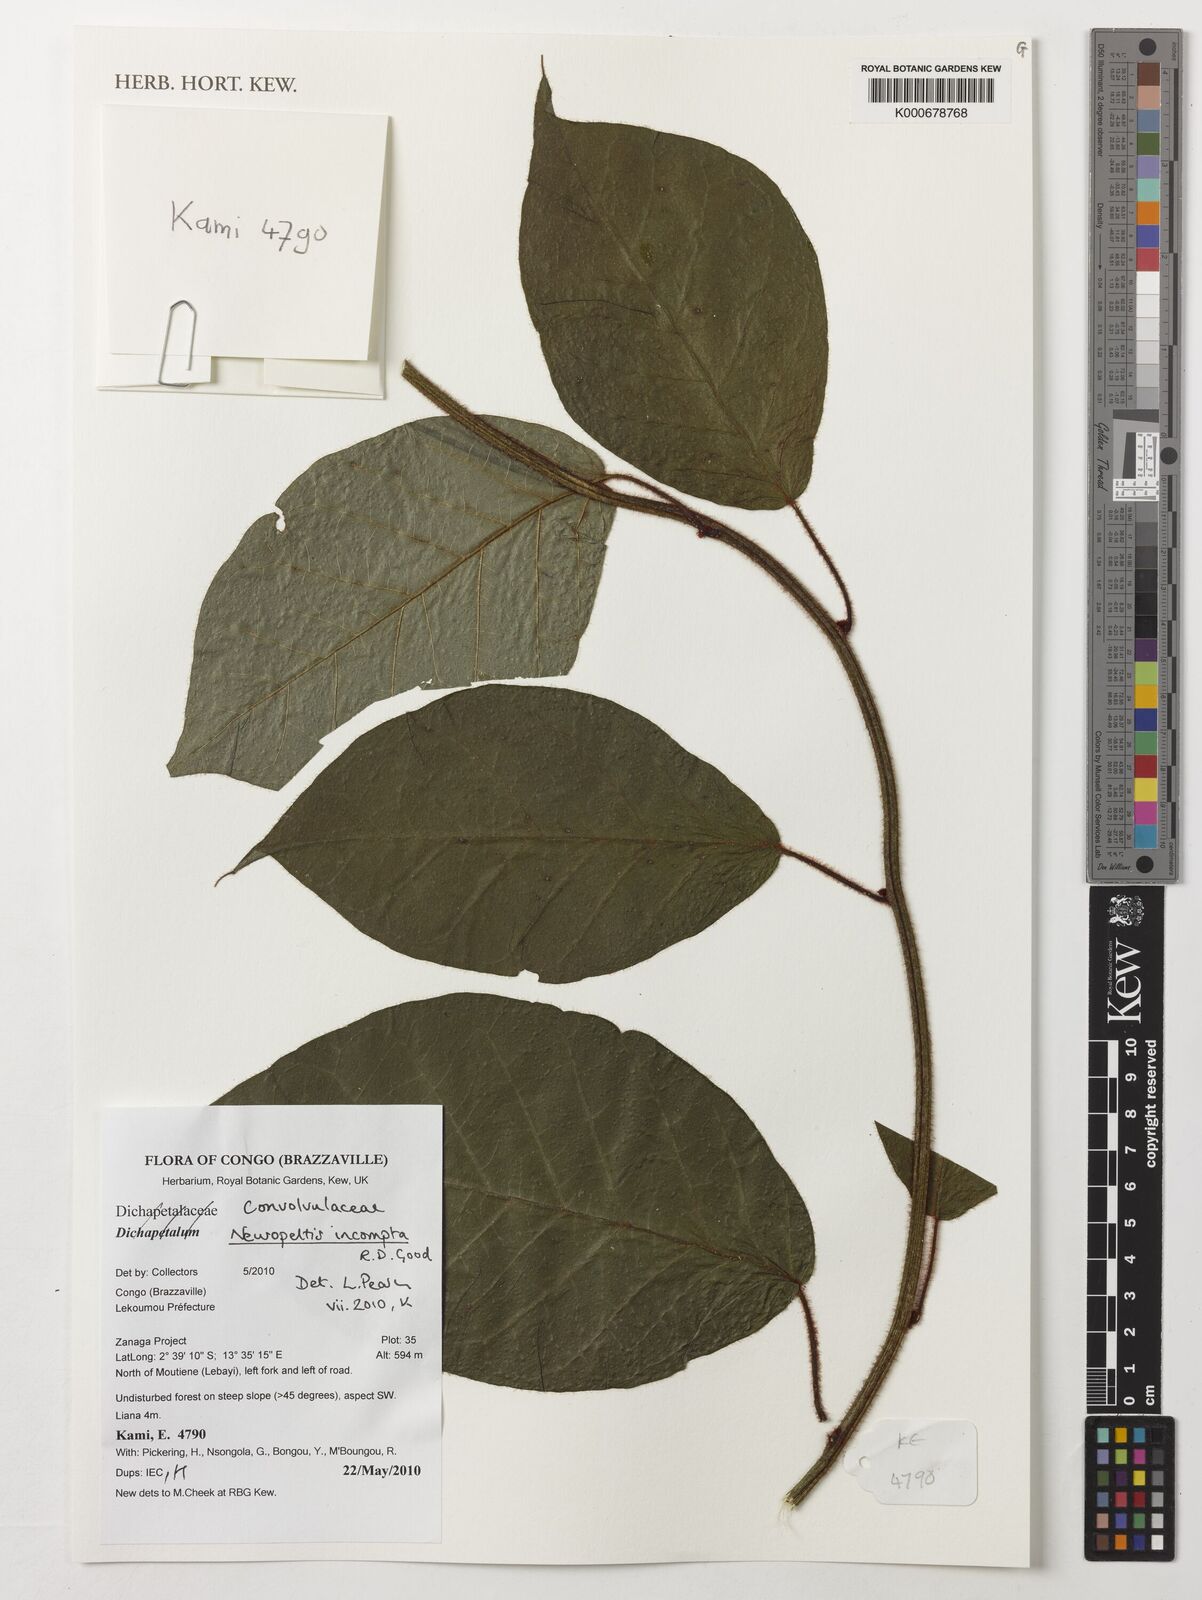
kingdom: Plantae
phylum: Tracheophyta
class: Magnoliopsida
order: Solanales
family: Convolvulaceae
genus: Neuropeltis
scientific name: Neuropeltis incompta
